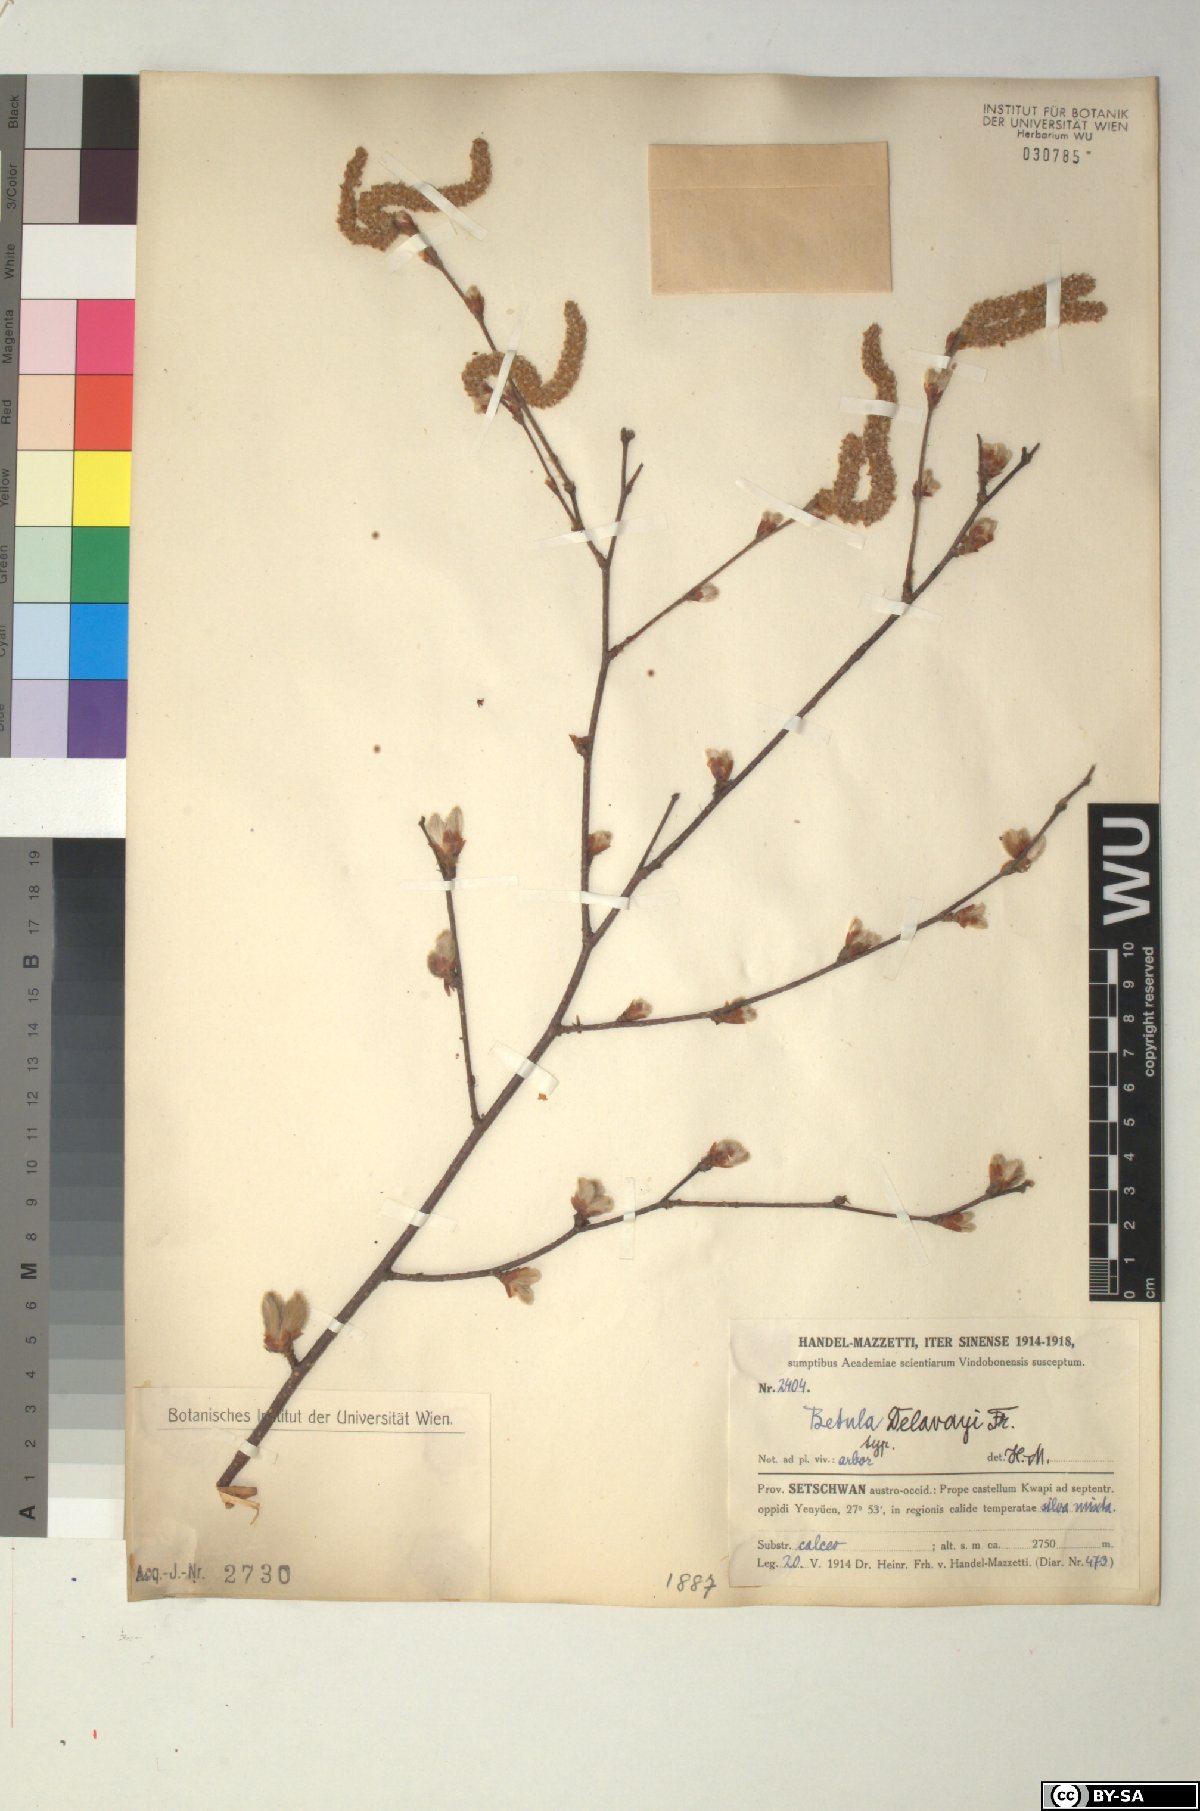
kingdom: Plantae
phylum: Tracheophyta
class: Magnoliopsida
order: Fagales
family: Betulaceae
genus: Betula
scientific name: Betula delavayi
